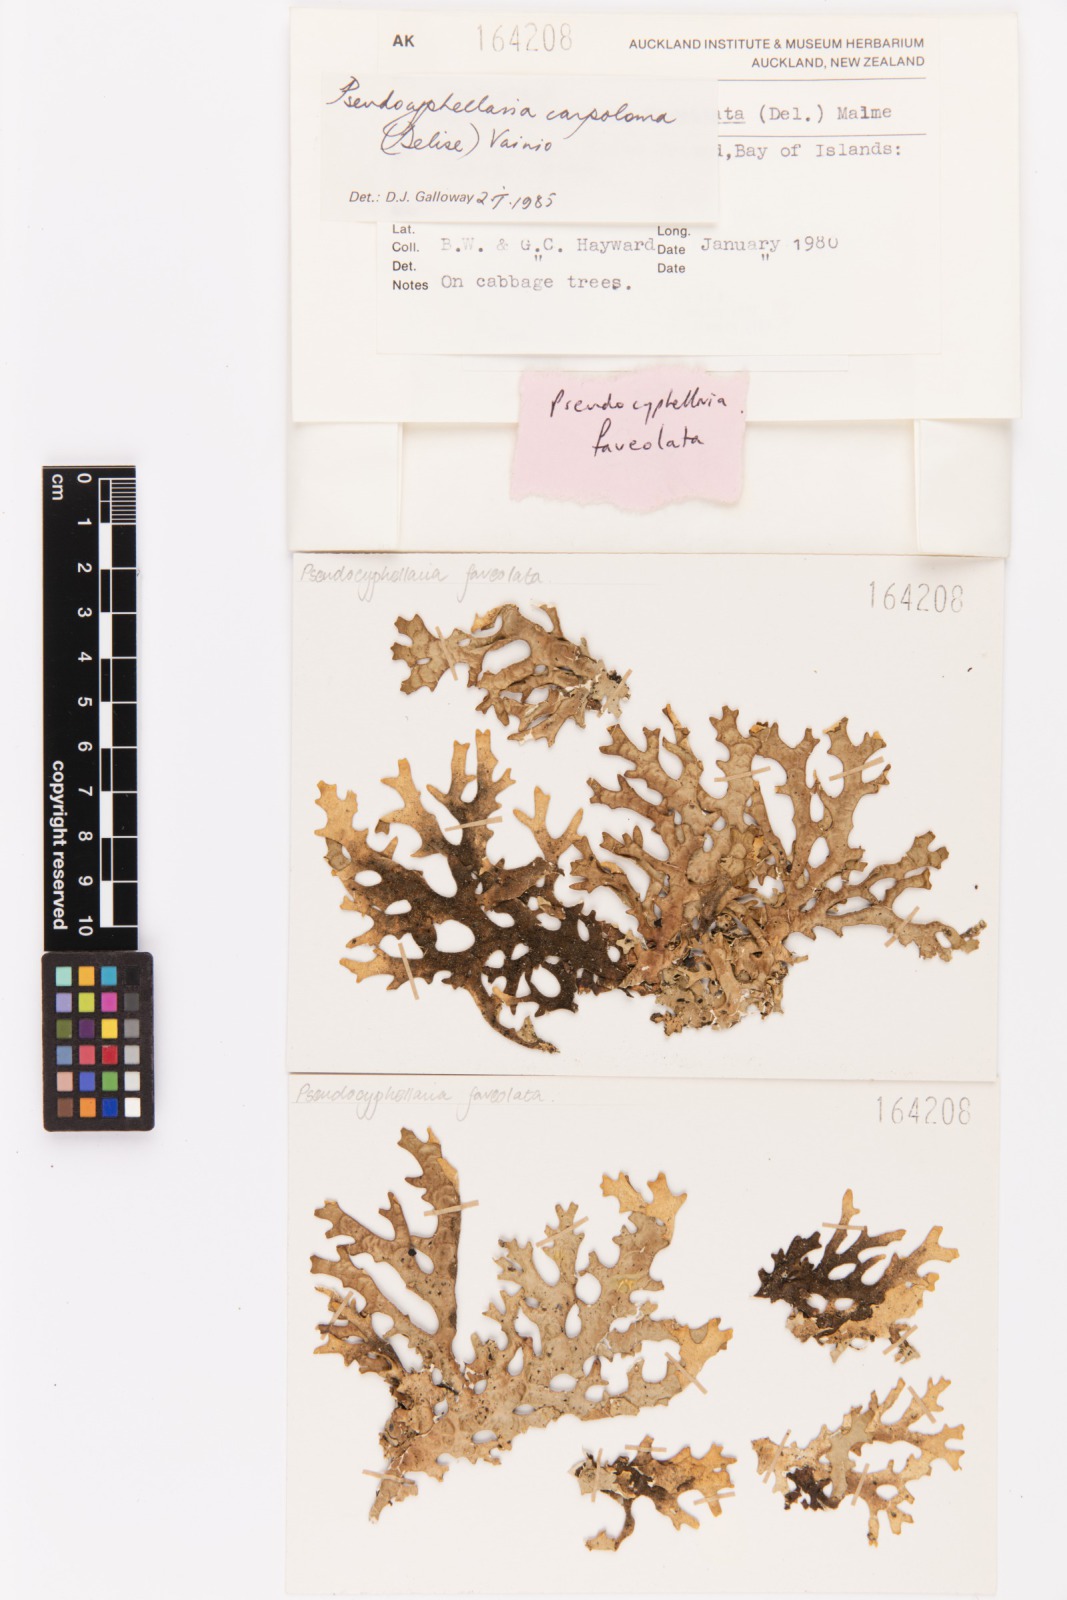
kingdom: Fungi
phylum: Ascomycota
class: Lecanoromycetes
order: Peltigerales
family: Lobariaceae
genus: Pseudocyphellaria
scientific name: Pseudocyphellaria carpoloma
